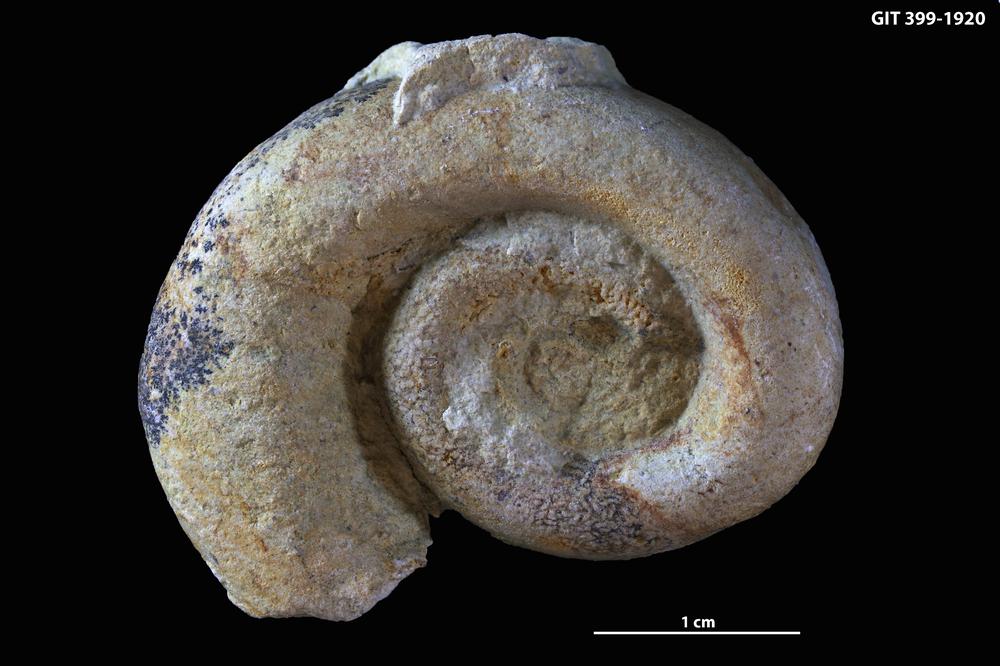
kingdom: Animalia
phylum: Mollusca
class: Gastropoda
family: Lesueurillidae
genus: Mestoronema
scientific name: Mestoronema Euomphalus marginalis
